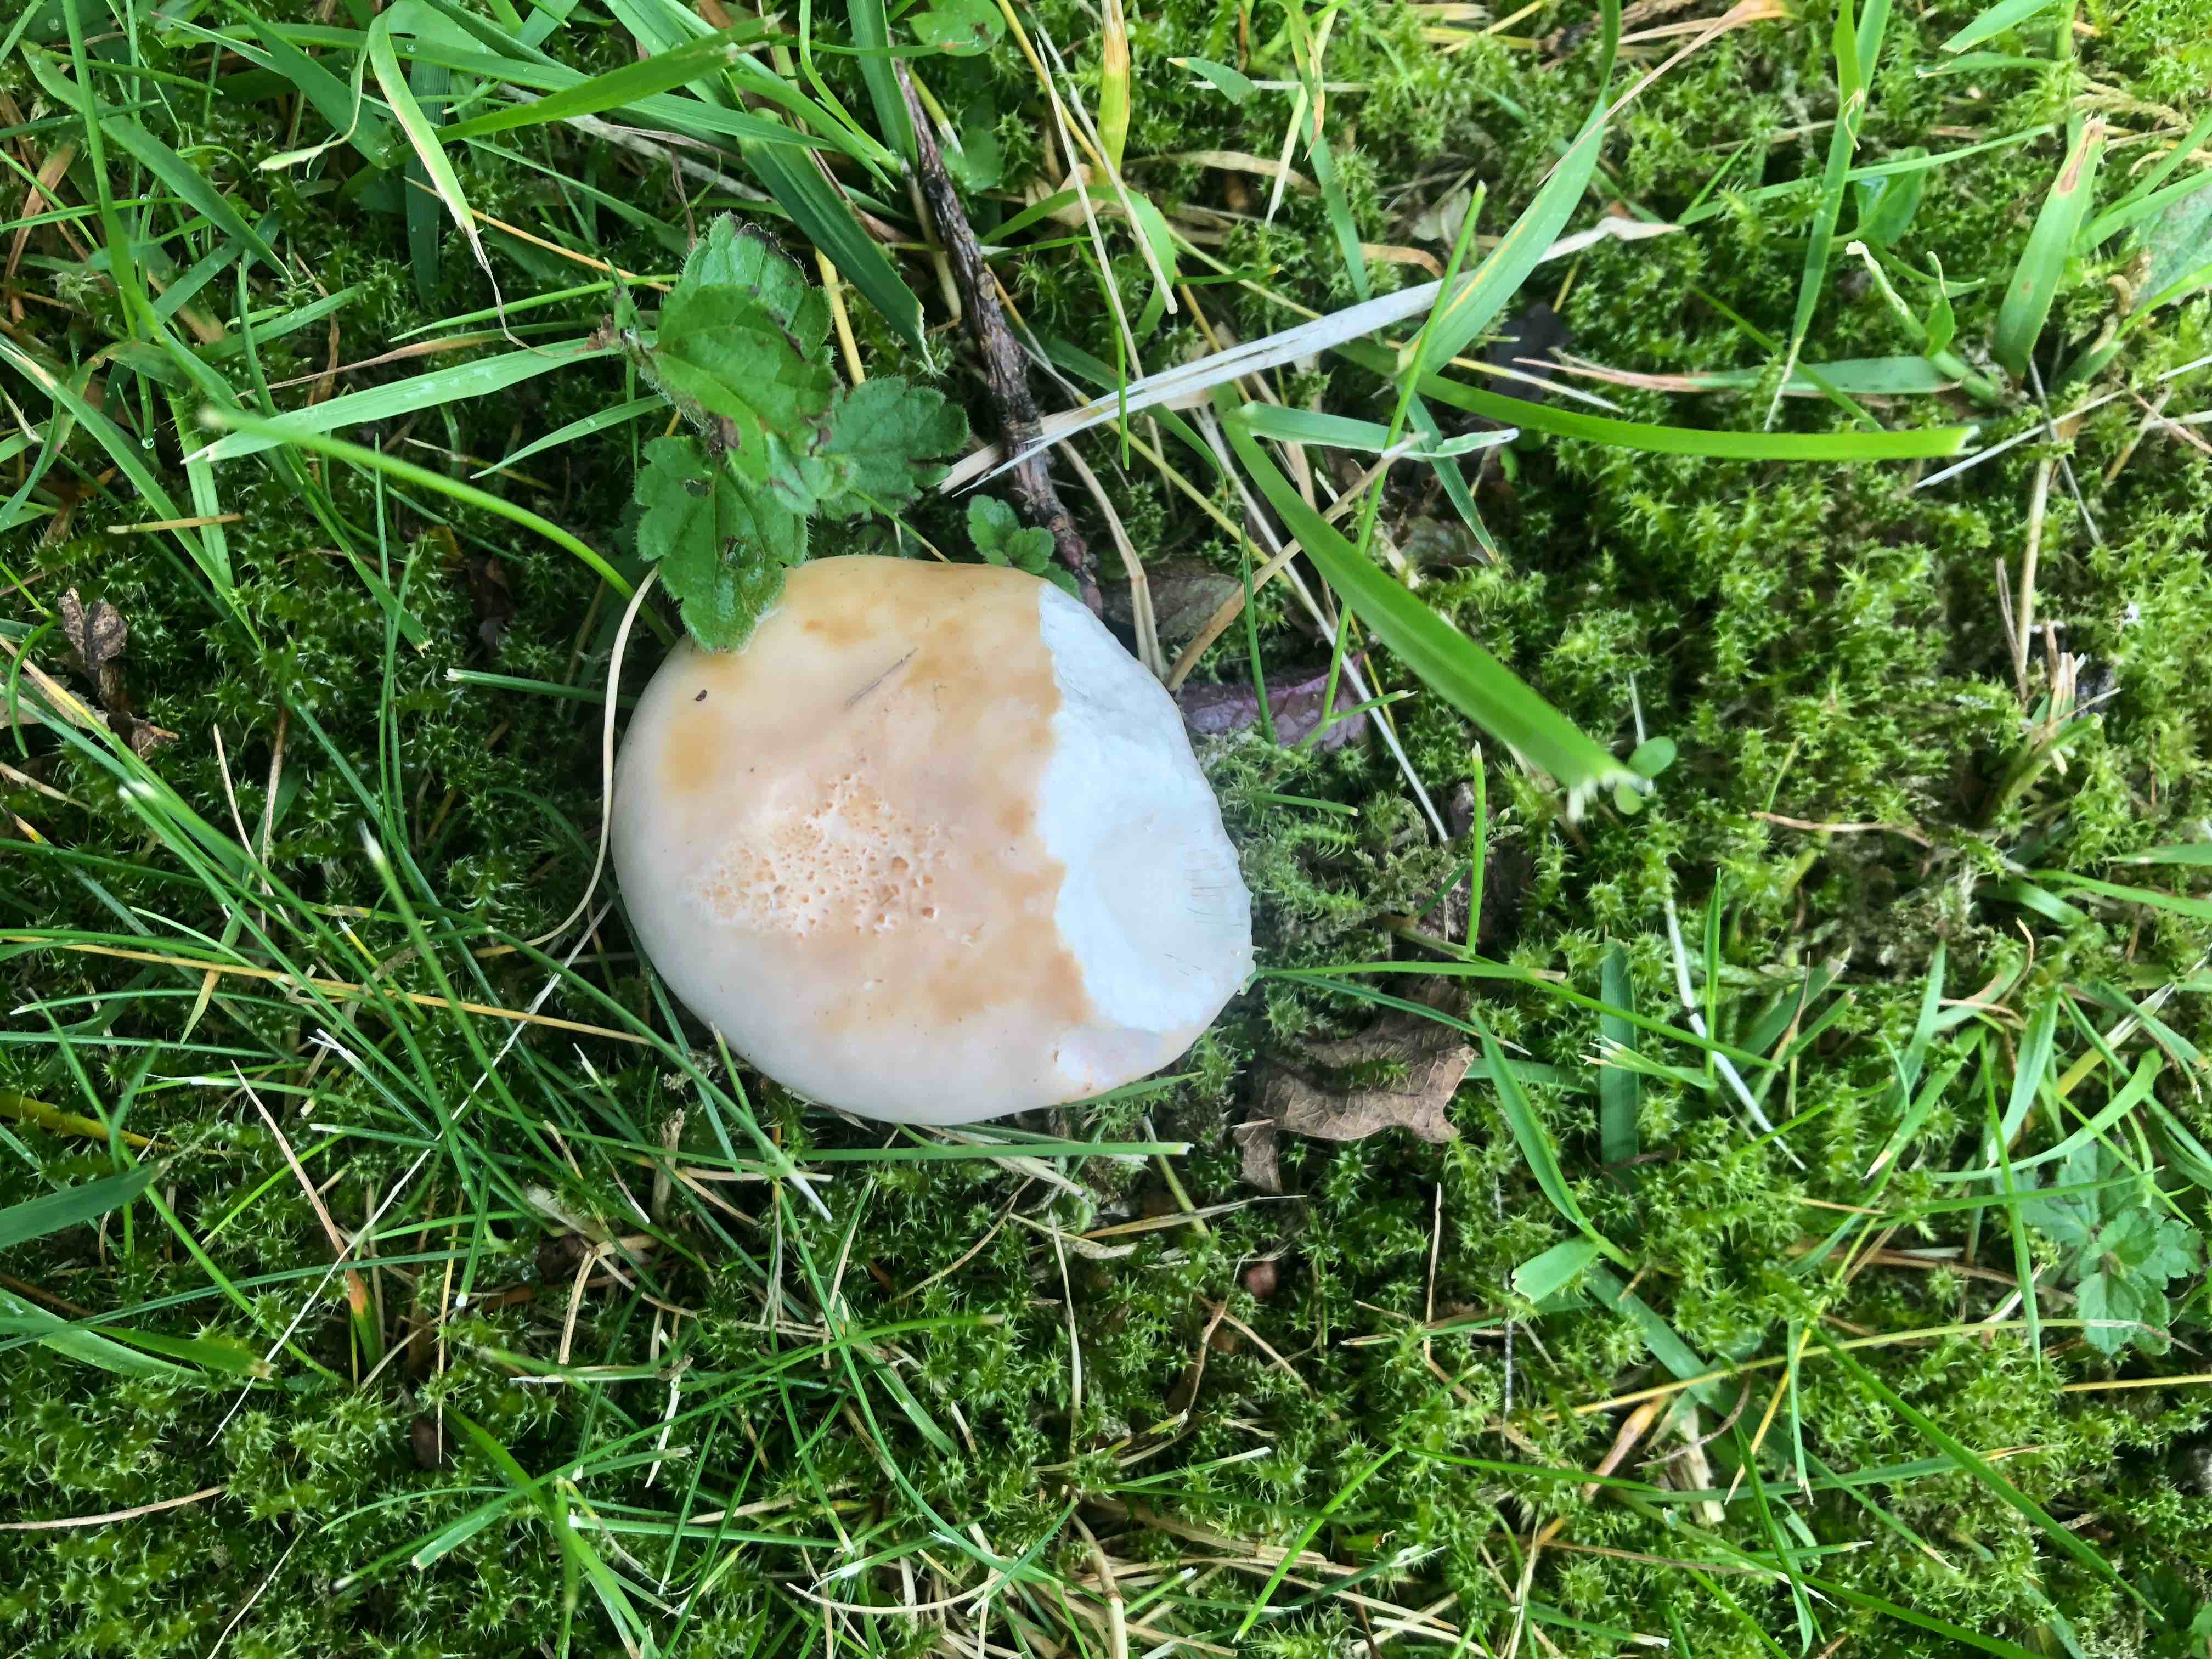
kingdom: Fungi
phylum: Basidiomycota
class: Agaricomycetes
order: Russulales
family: Russulaceae
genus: Russula
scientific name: Russula
